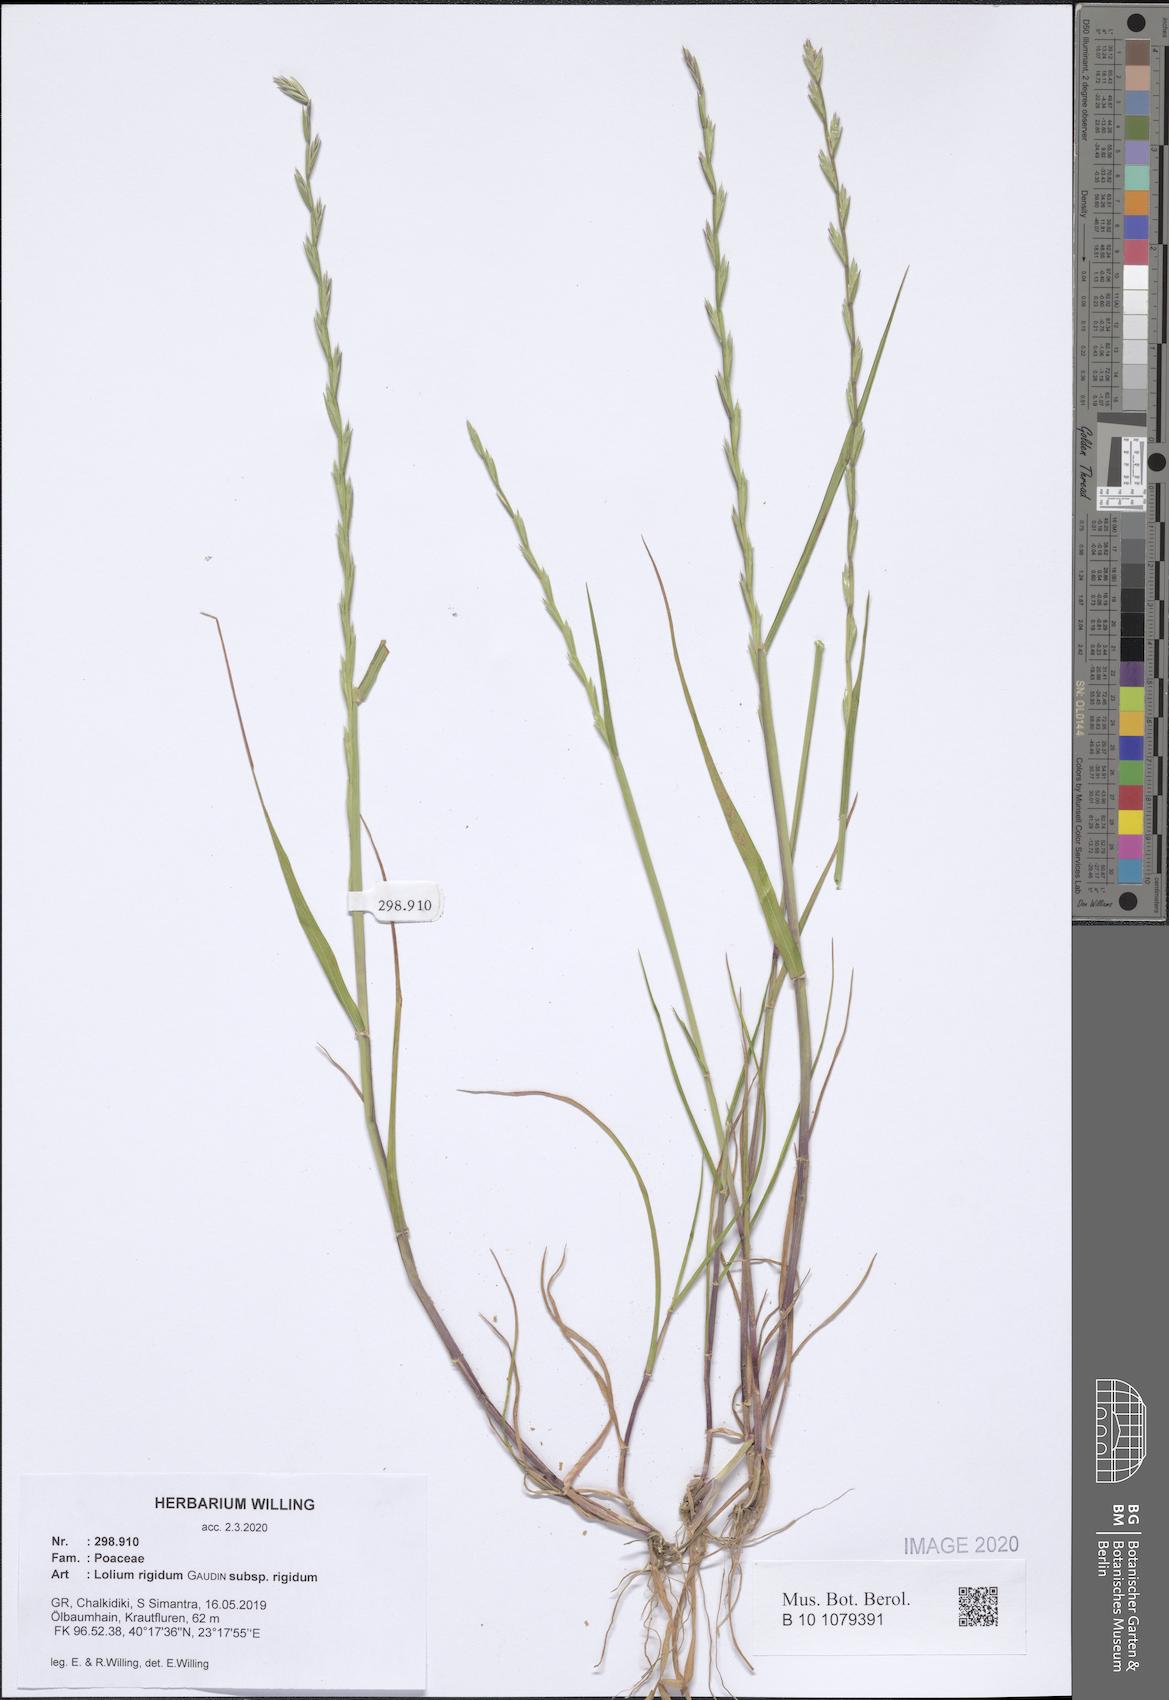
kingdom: Plantae
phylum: Tracheophyta
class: Liliopsida
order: Poales
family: Poaceae
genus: Lolium
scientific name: Lolium rigidum
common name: Wimmera ryegrass
